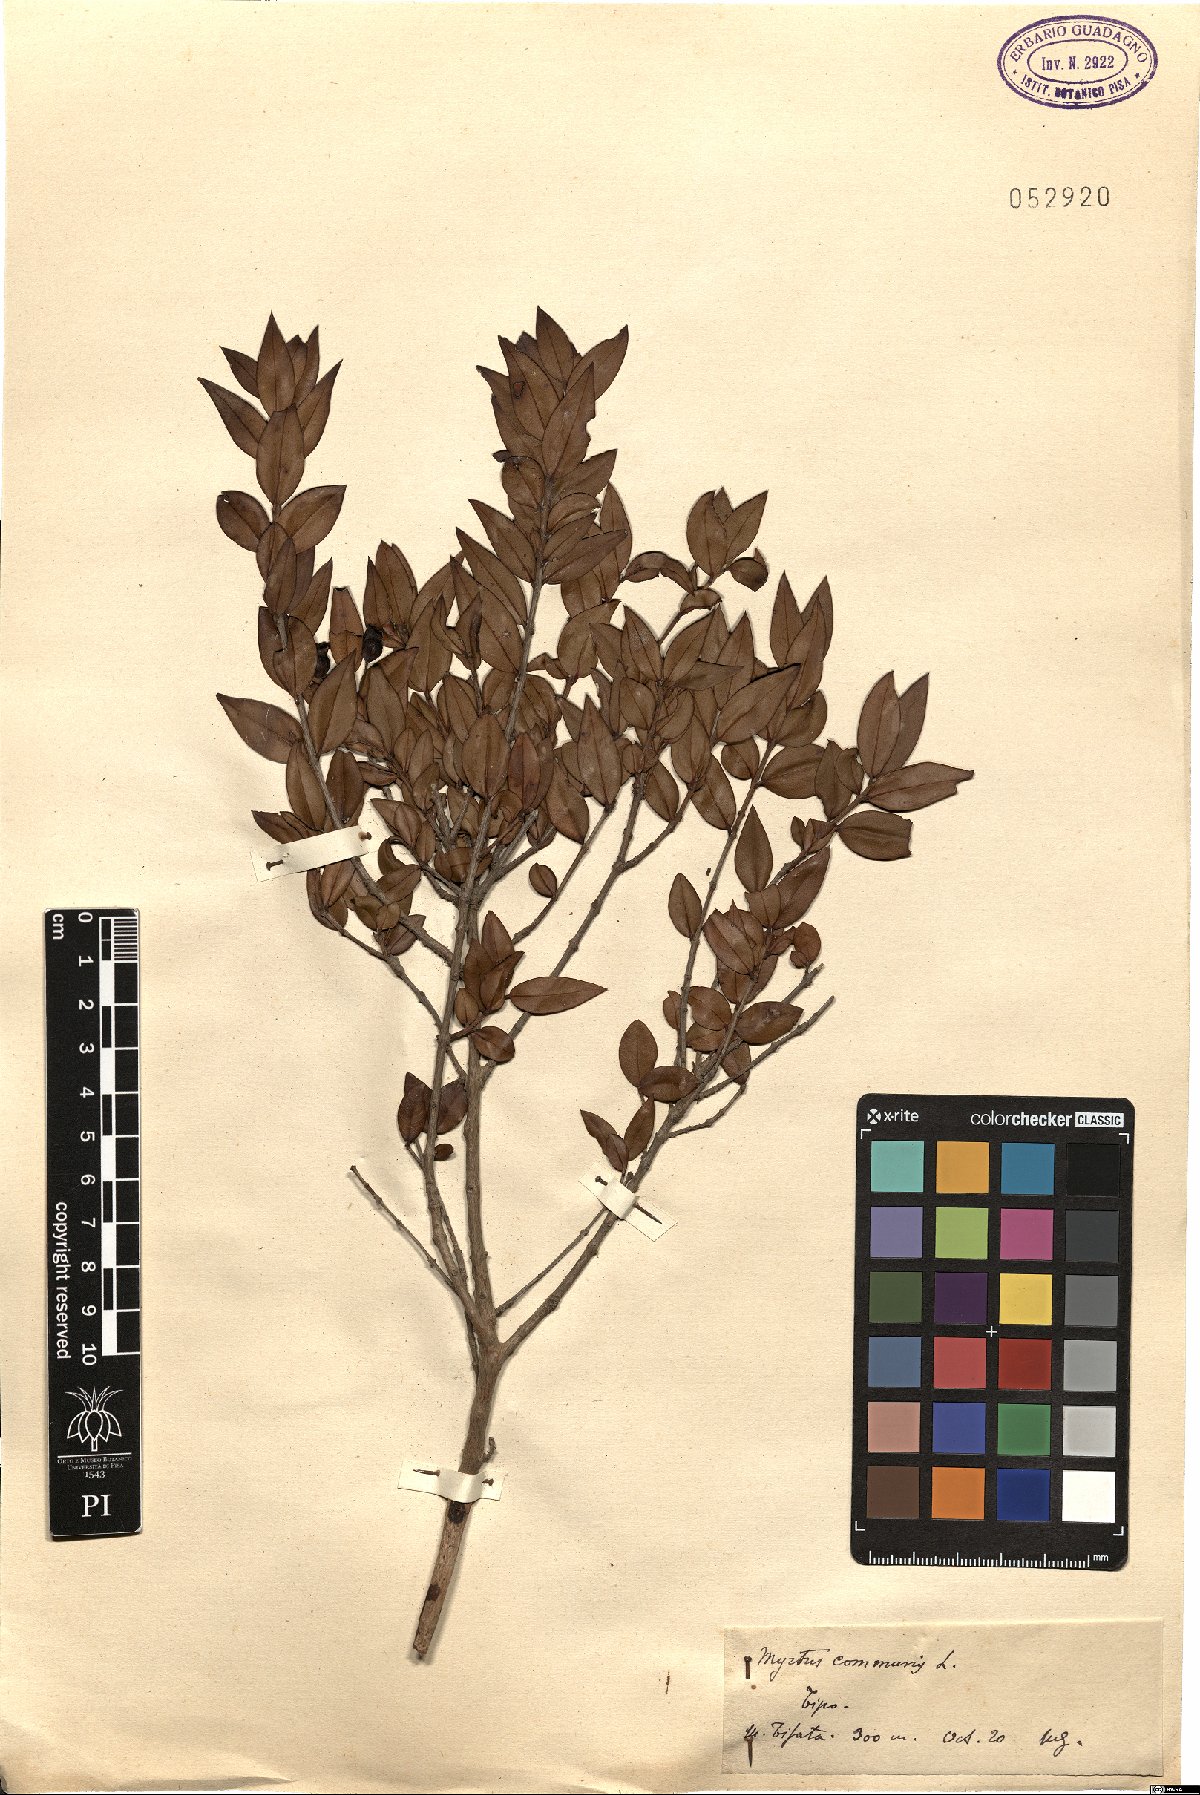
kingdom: Plantae
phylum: Tracheophyta
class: Magnoliopsida
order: Myrtales
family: Myrtaceae
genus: Myrtus
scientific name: Myrtus communis
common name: Myrtle
